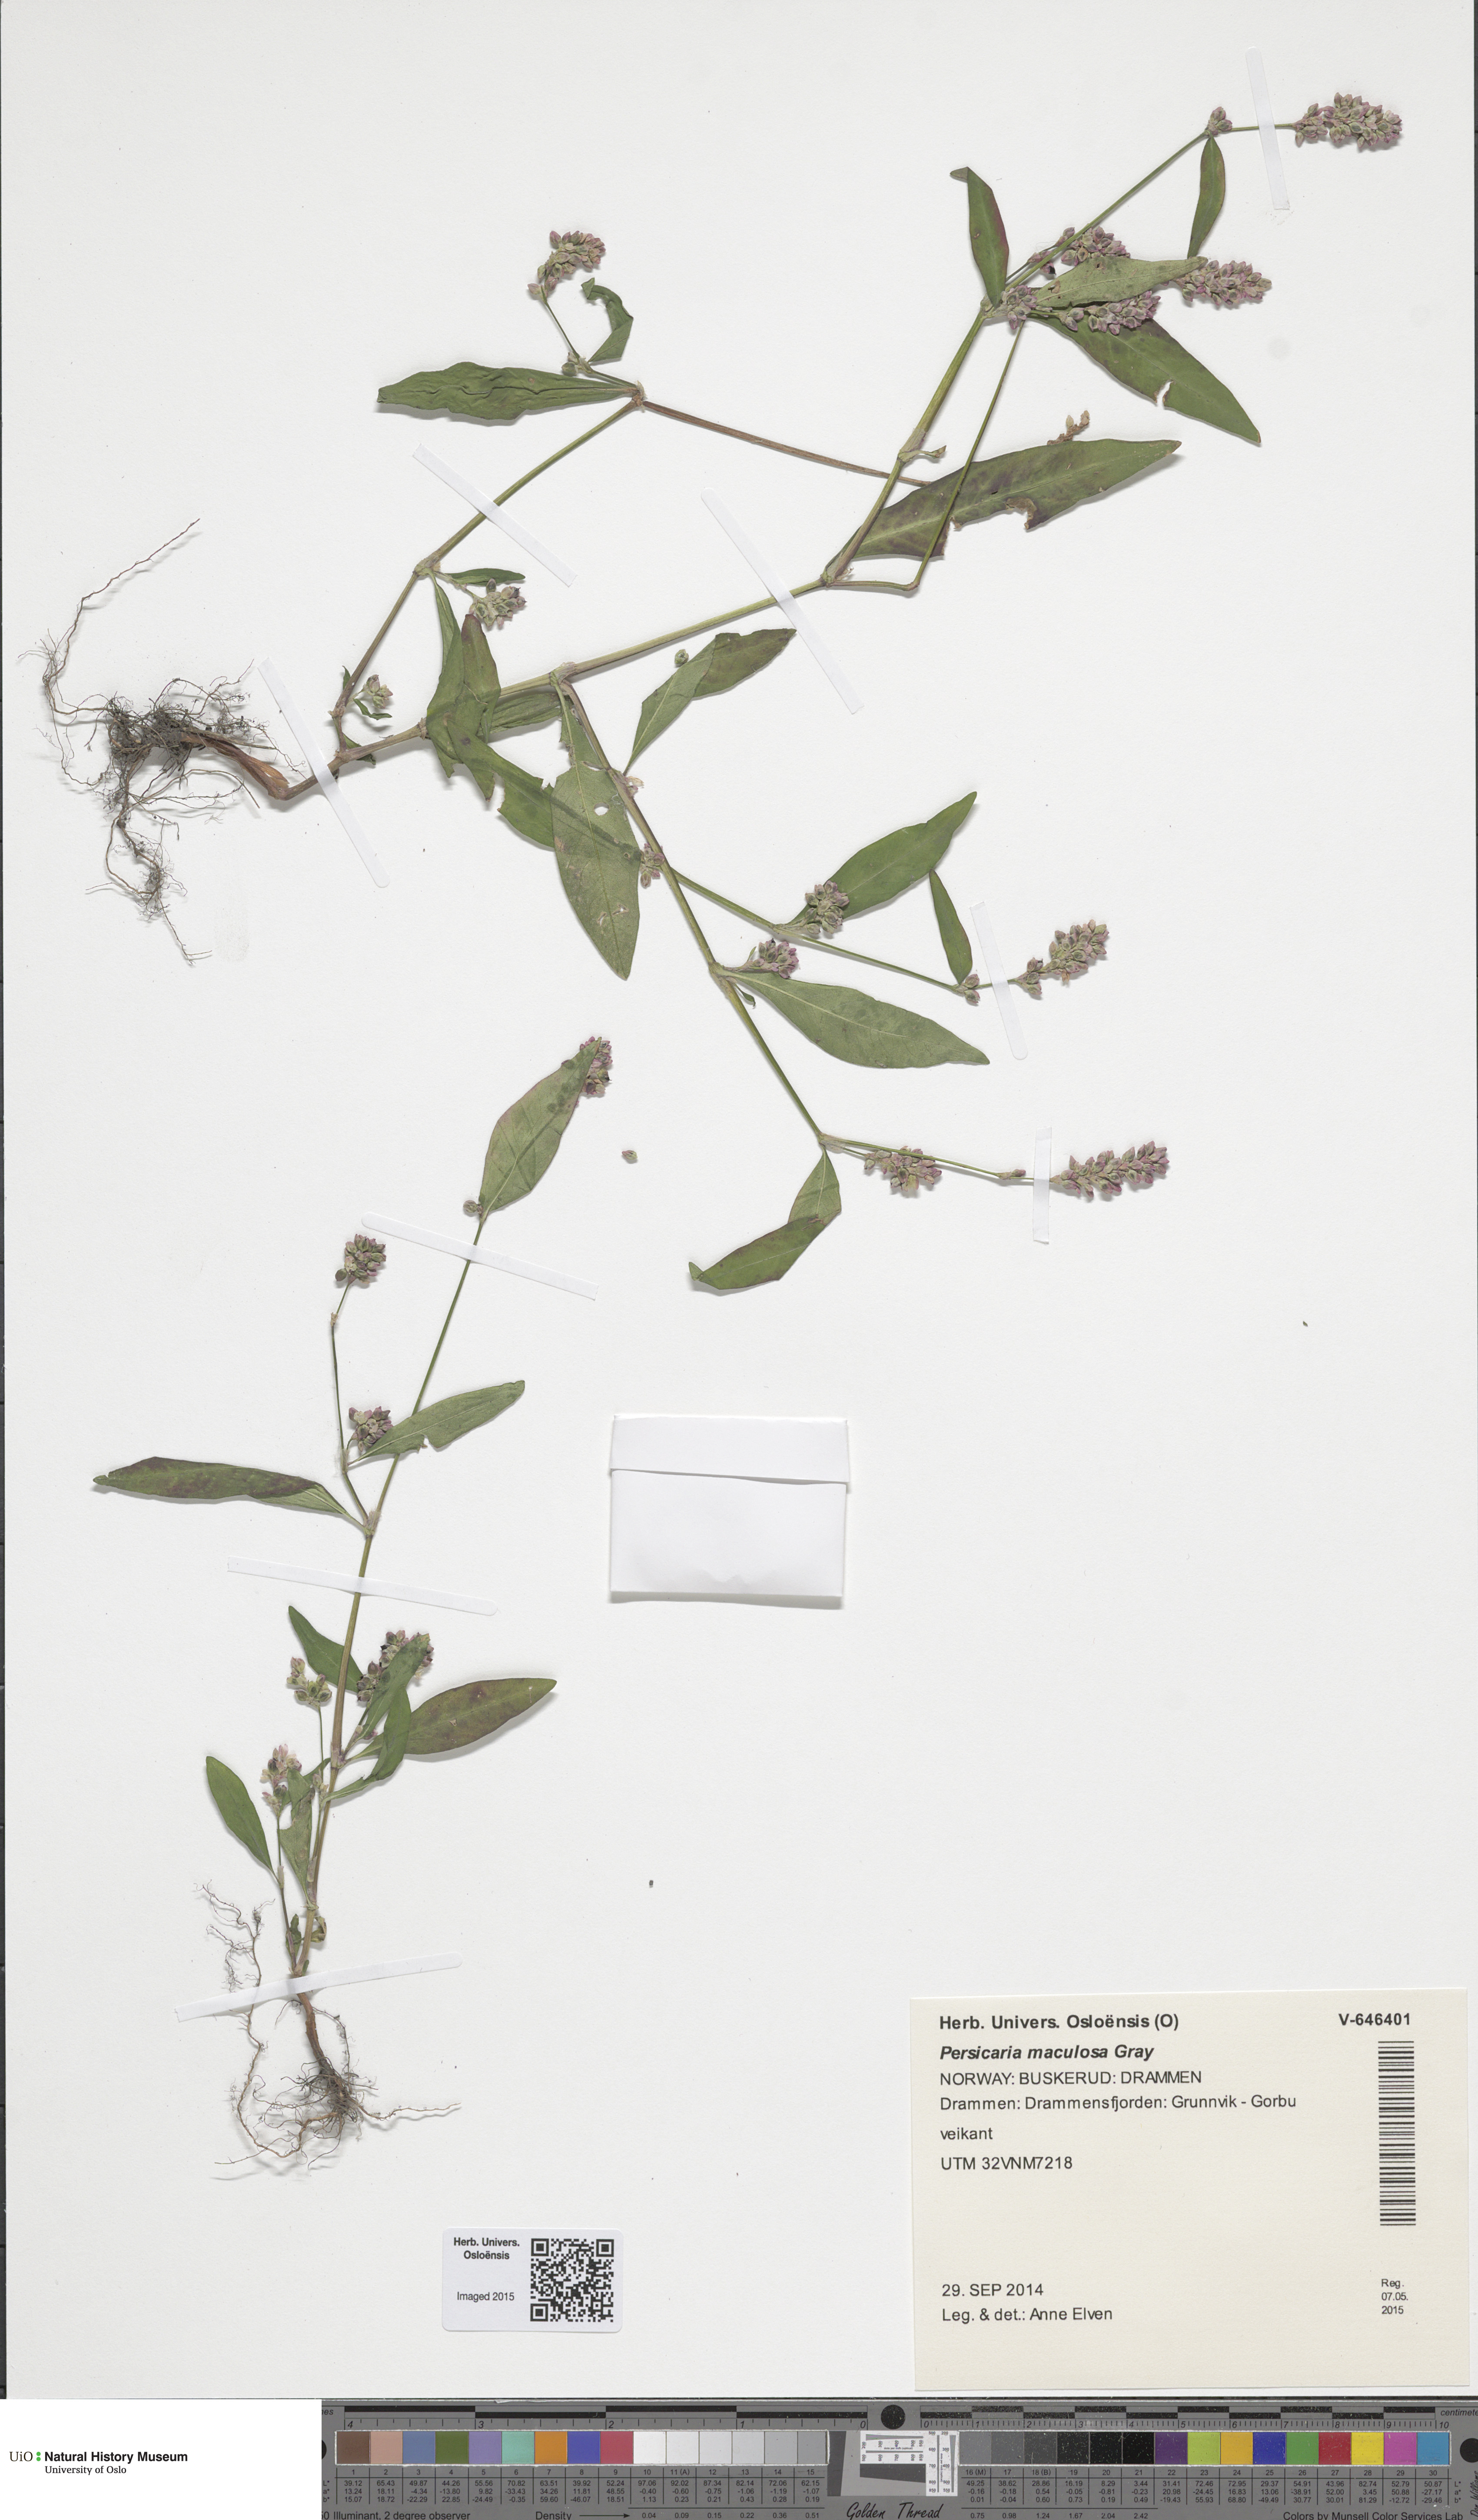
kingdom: Plantae
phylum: Tracheophyta
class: Magnoliopsida
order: Caryophyllales
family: Polygonaceae
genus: Persicaria
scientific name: Persicaria maculosa
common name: Redshank
